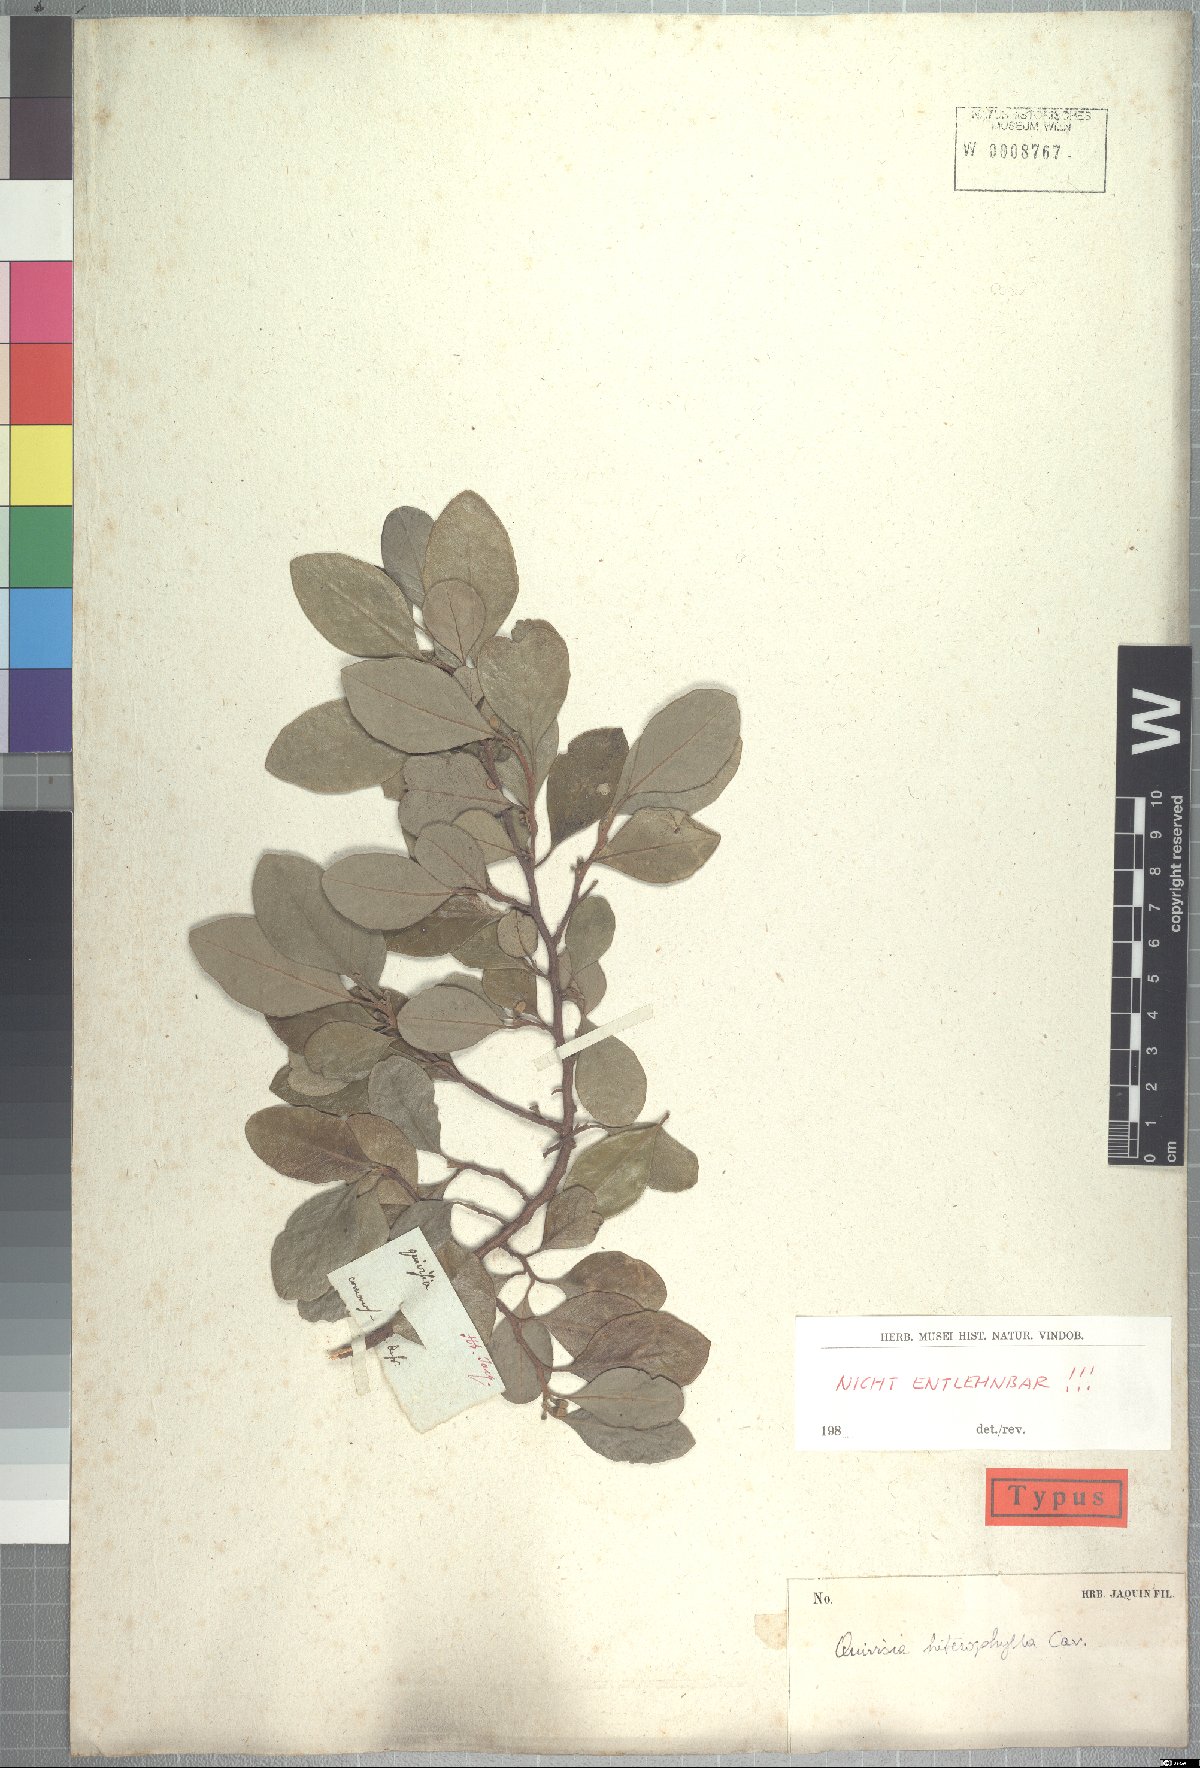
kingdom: Plantae
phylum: Tracheophyta
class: Magnoliopsida
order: Sapindales
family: Meliaceae
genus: Turraea
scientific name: Turraea thouarsiana
